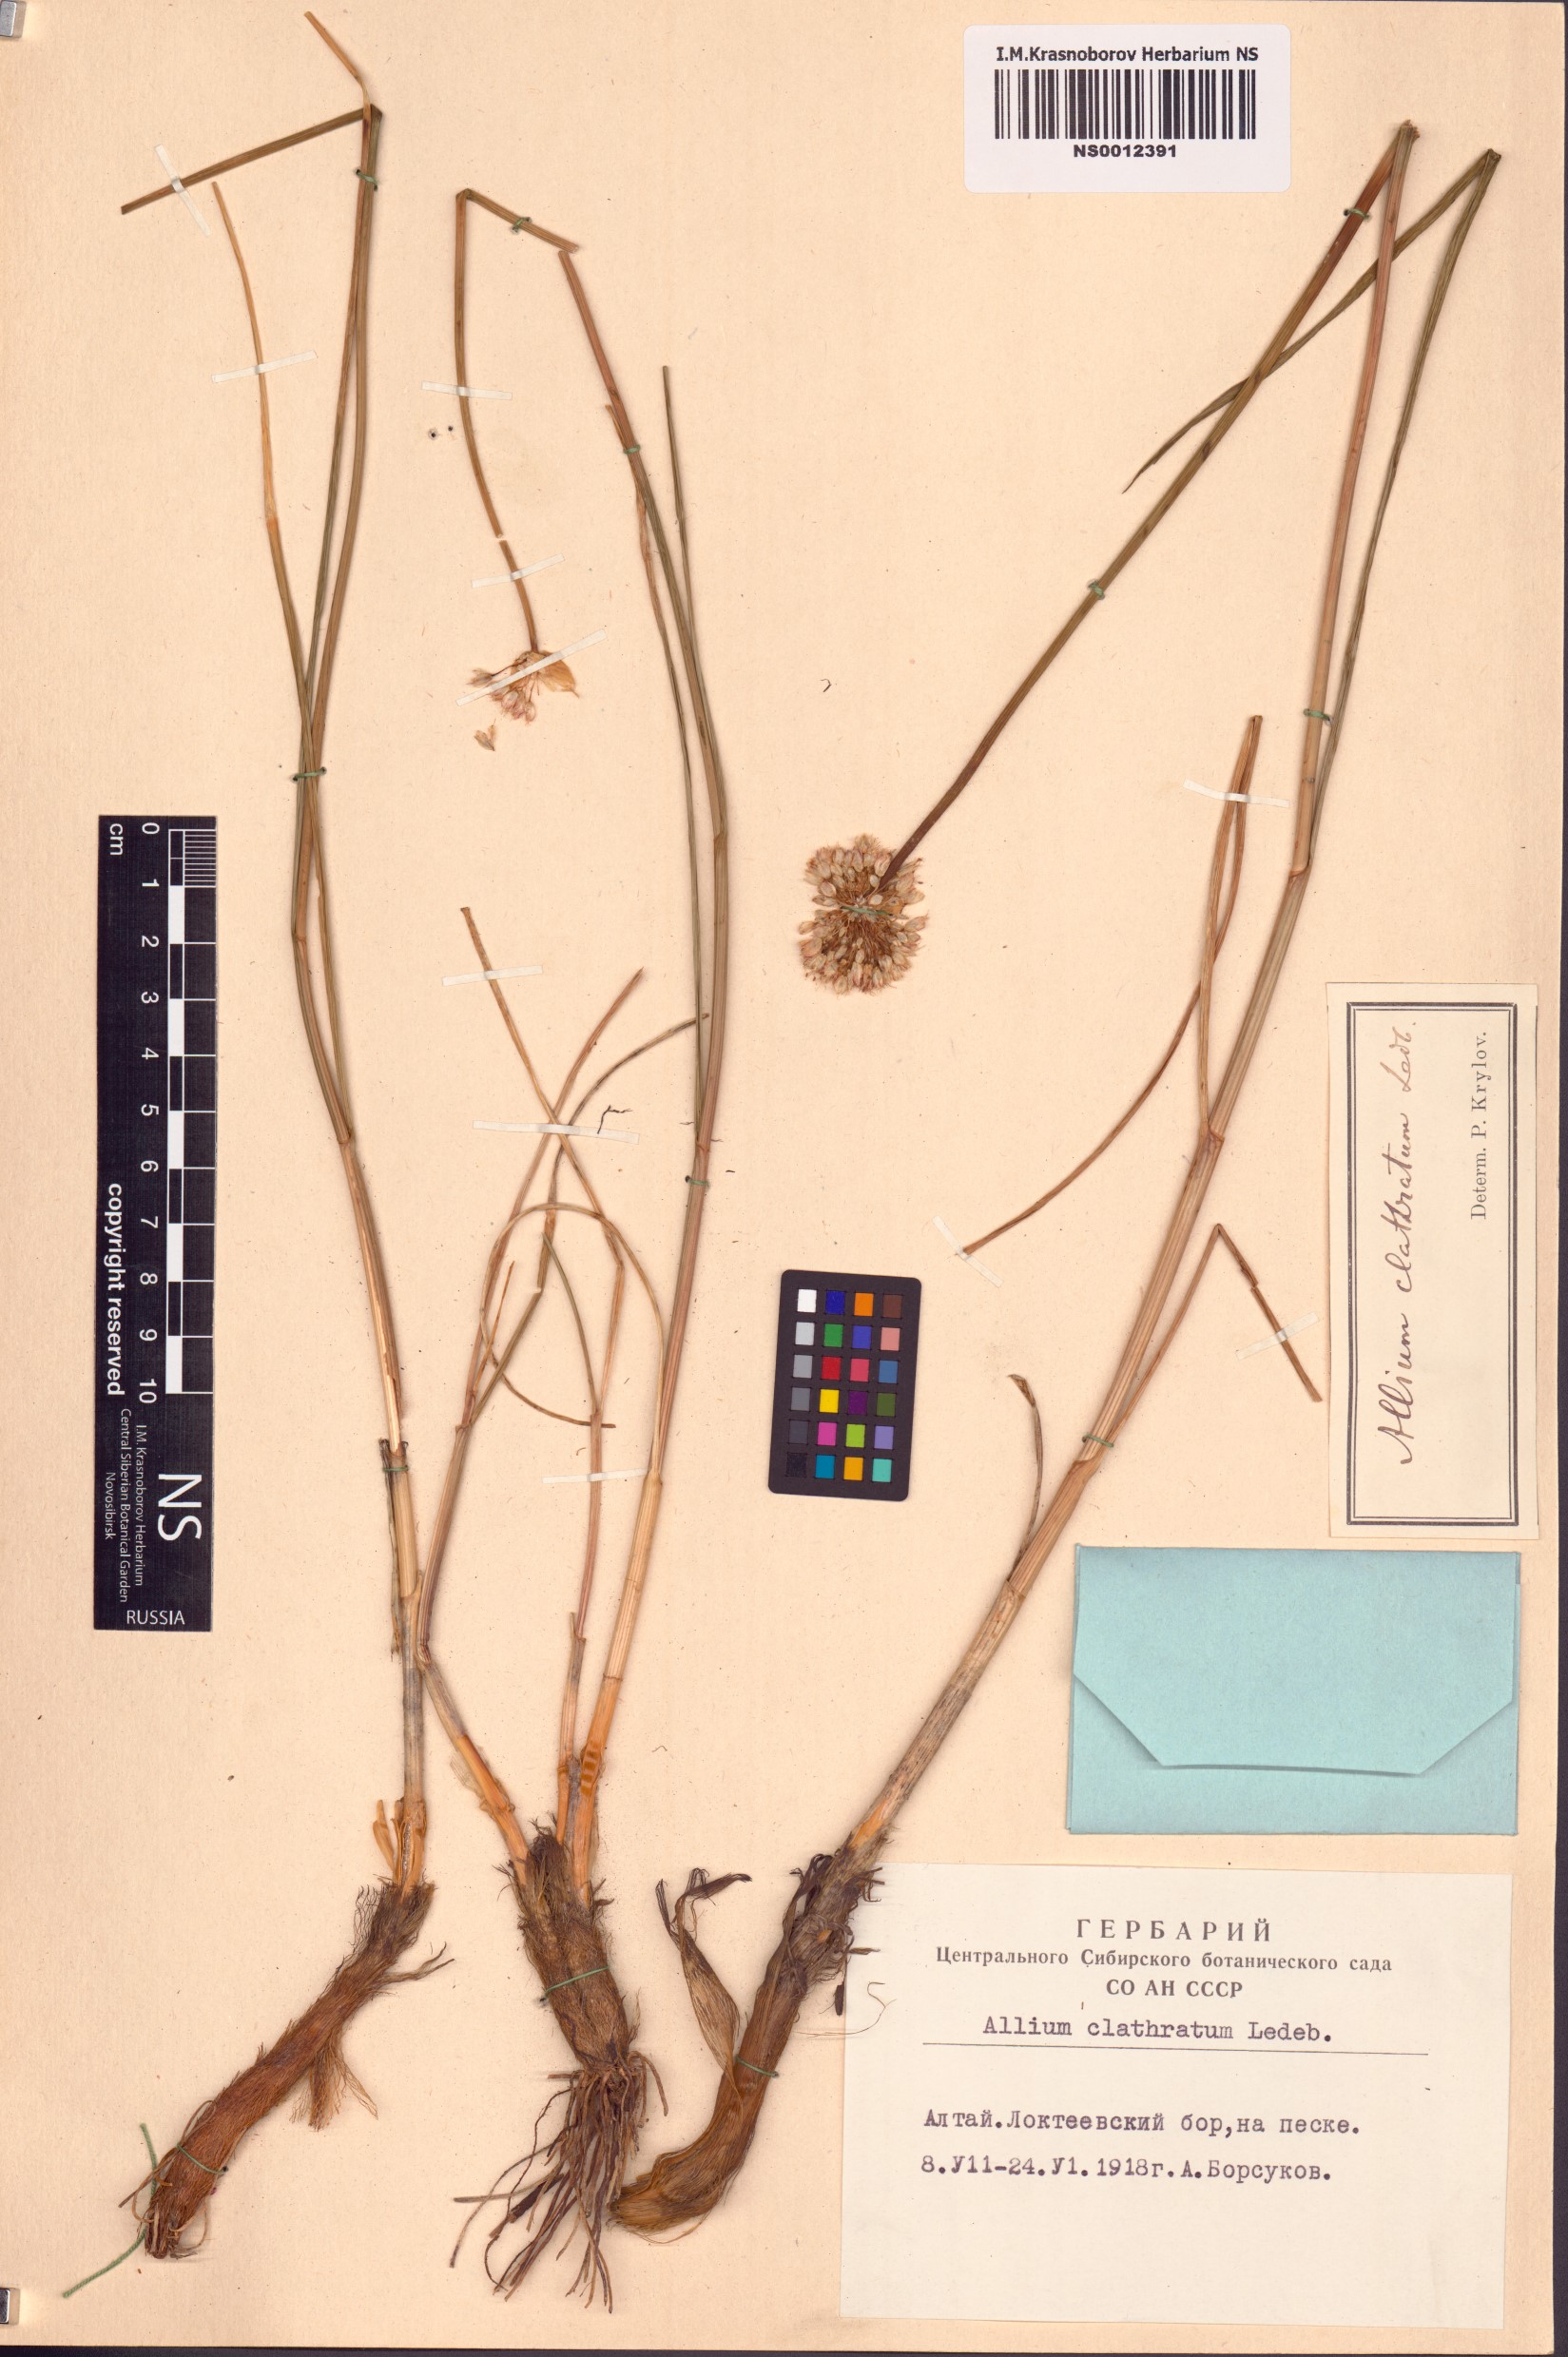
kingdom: Plantae
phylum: Tracheophyta
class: Liliopsida
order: Asparagales
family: Amaryllidaceae
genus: Allium
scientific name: Allium clathratum
